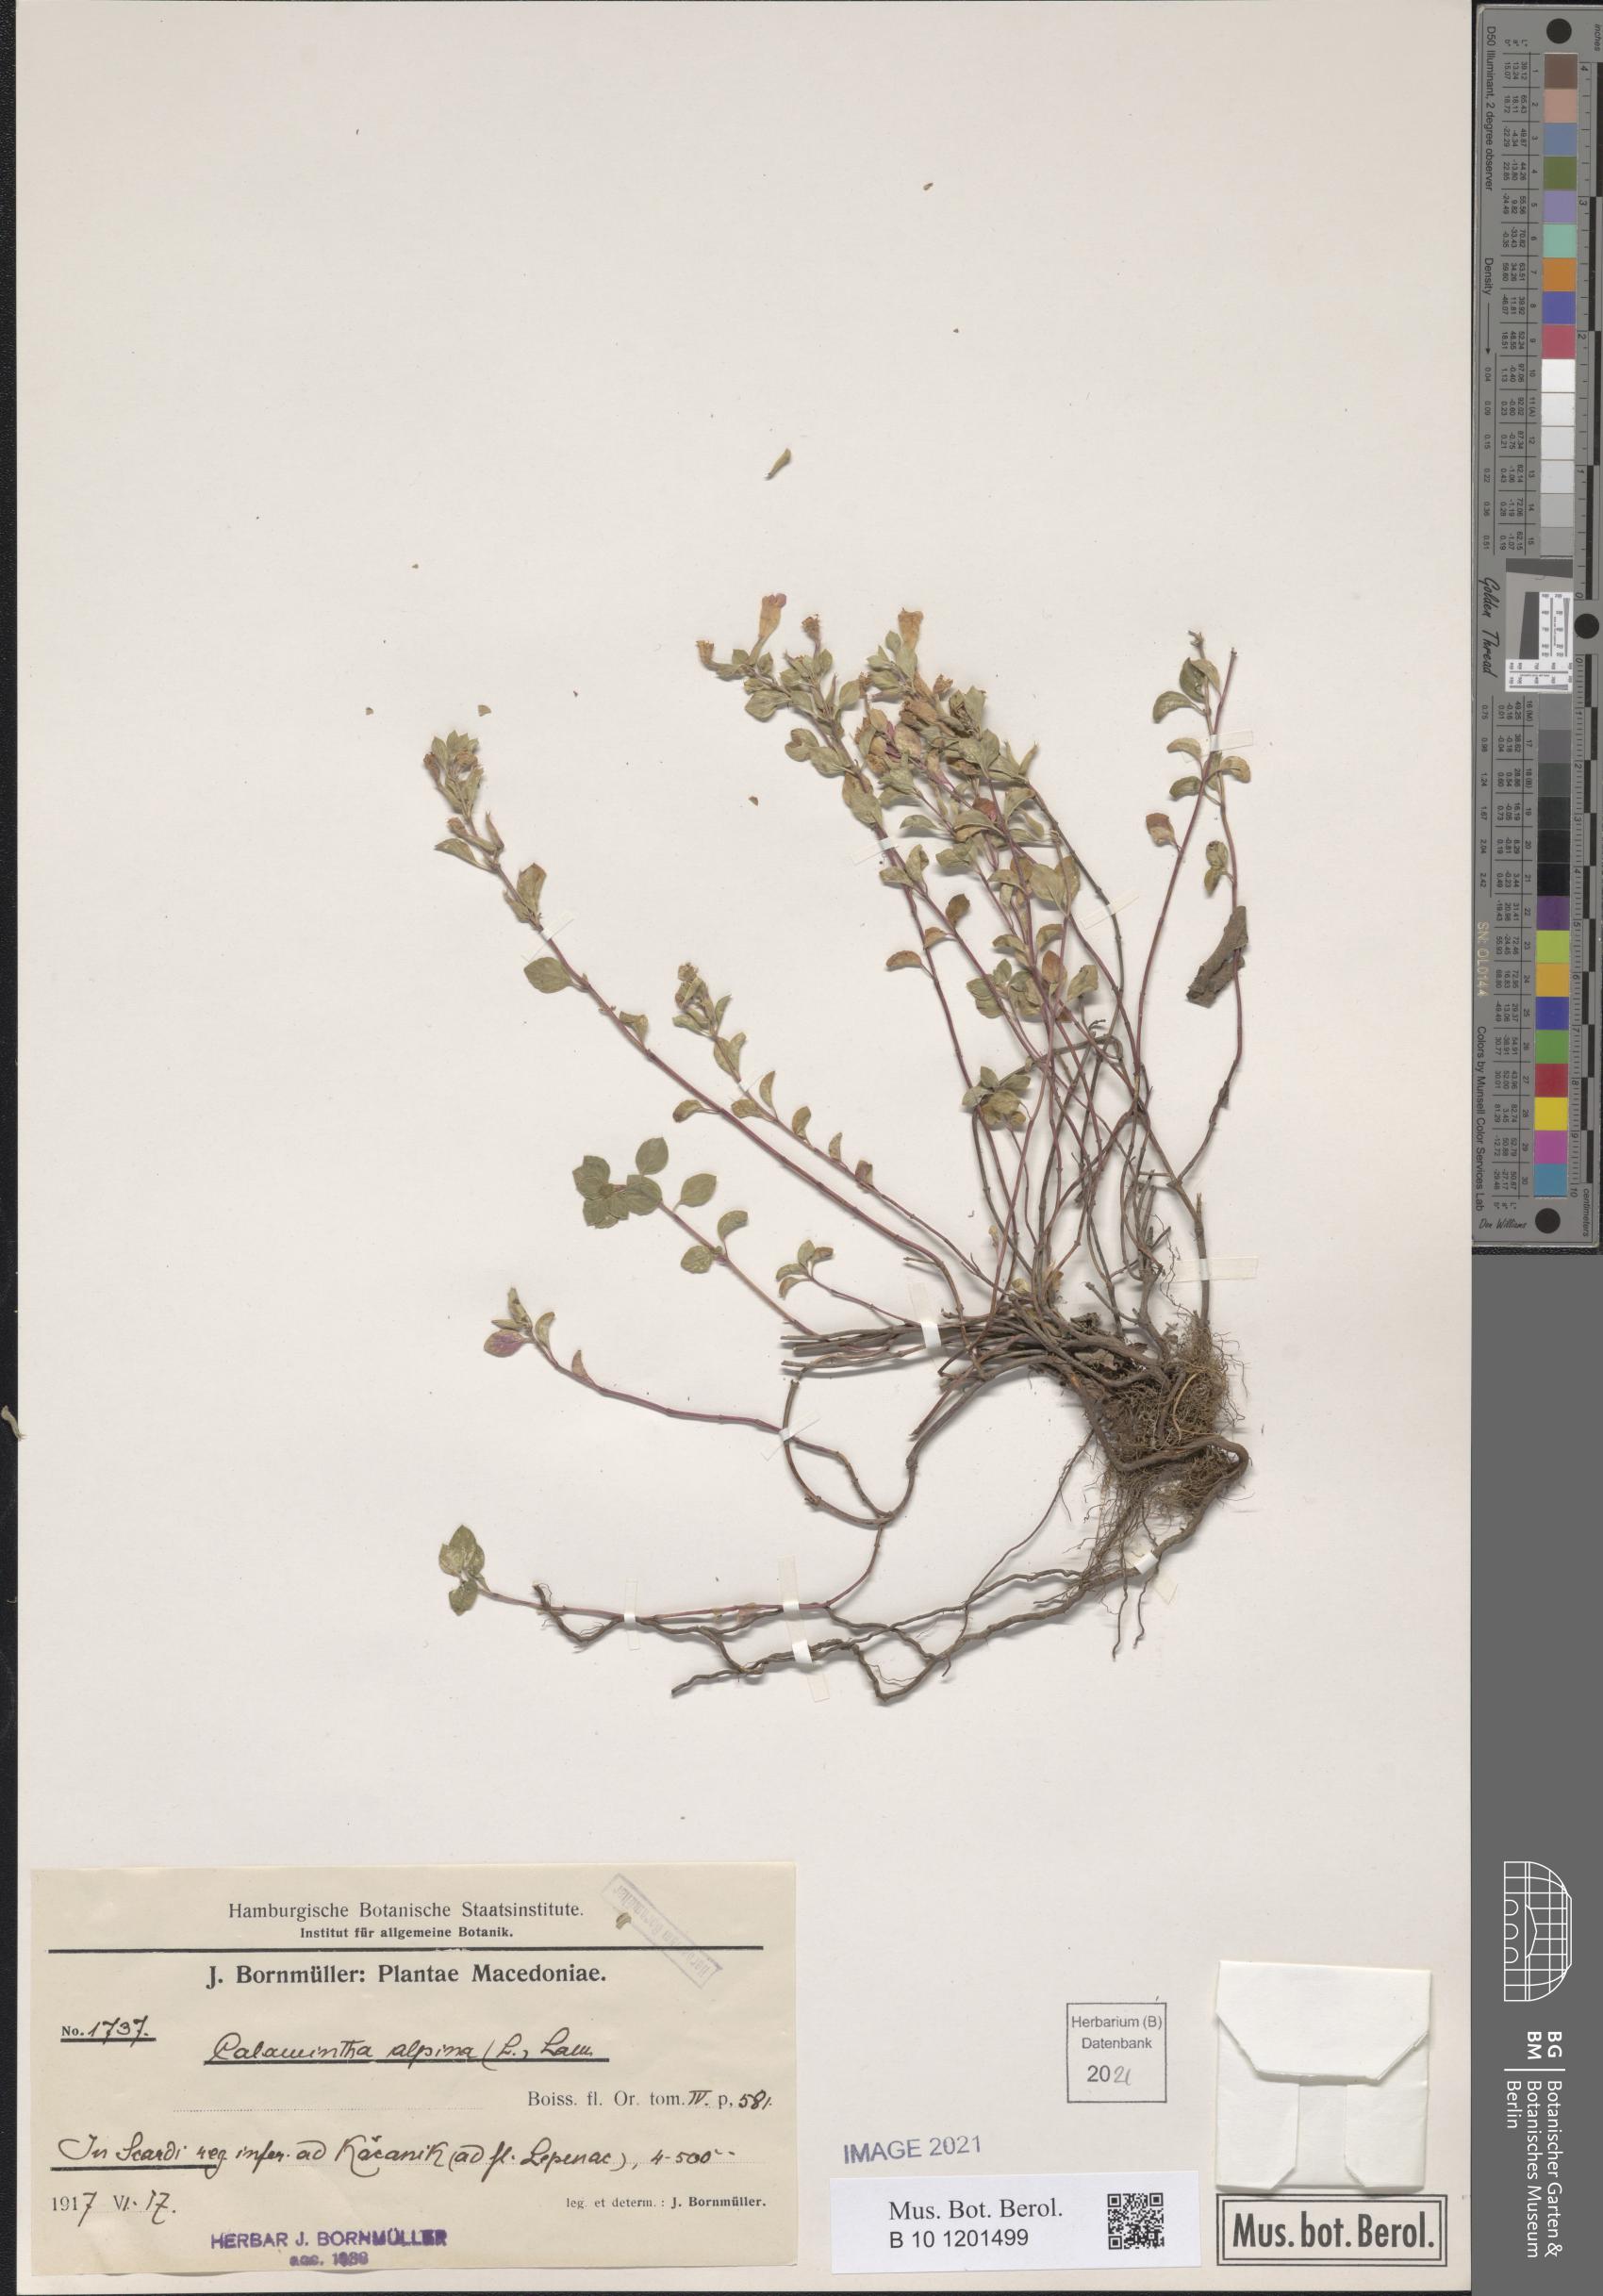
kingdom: Plantae
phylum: Tracheophyta
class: Magnoliopsida
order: Lamiales
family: Lamiaceae
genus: Clinopodium
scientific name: Clinopodium alpinum
